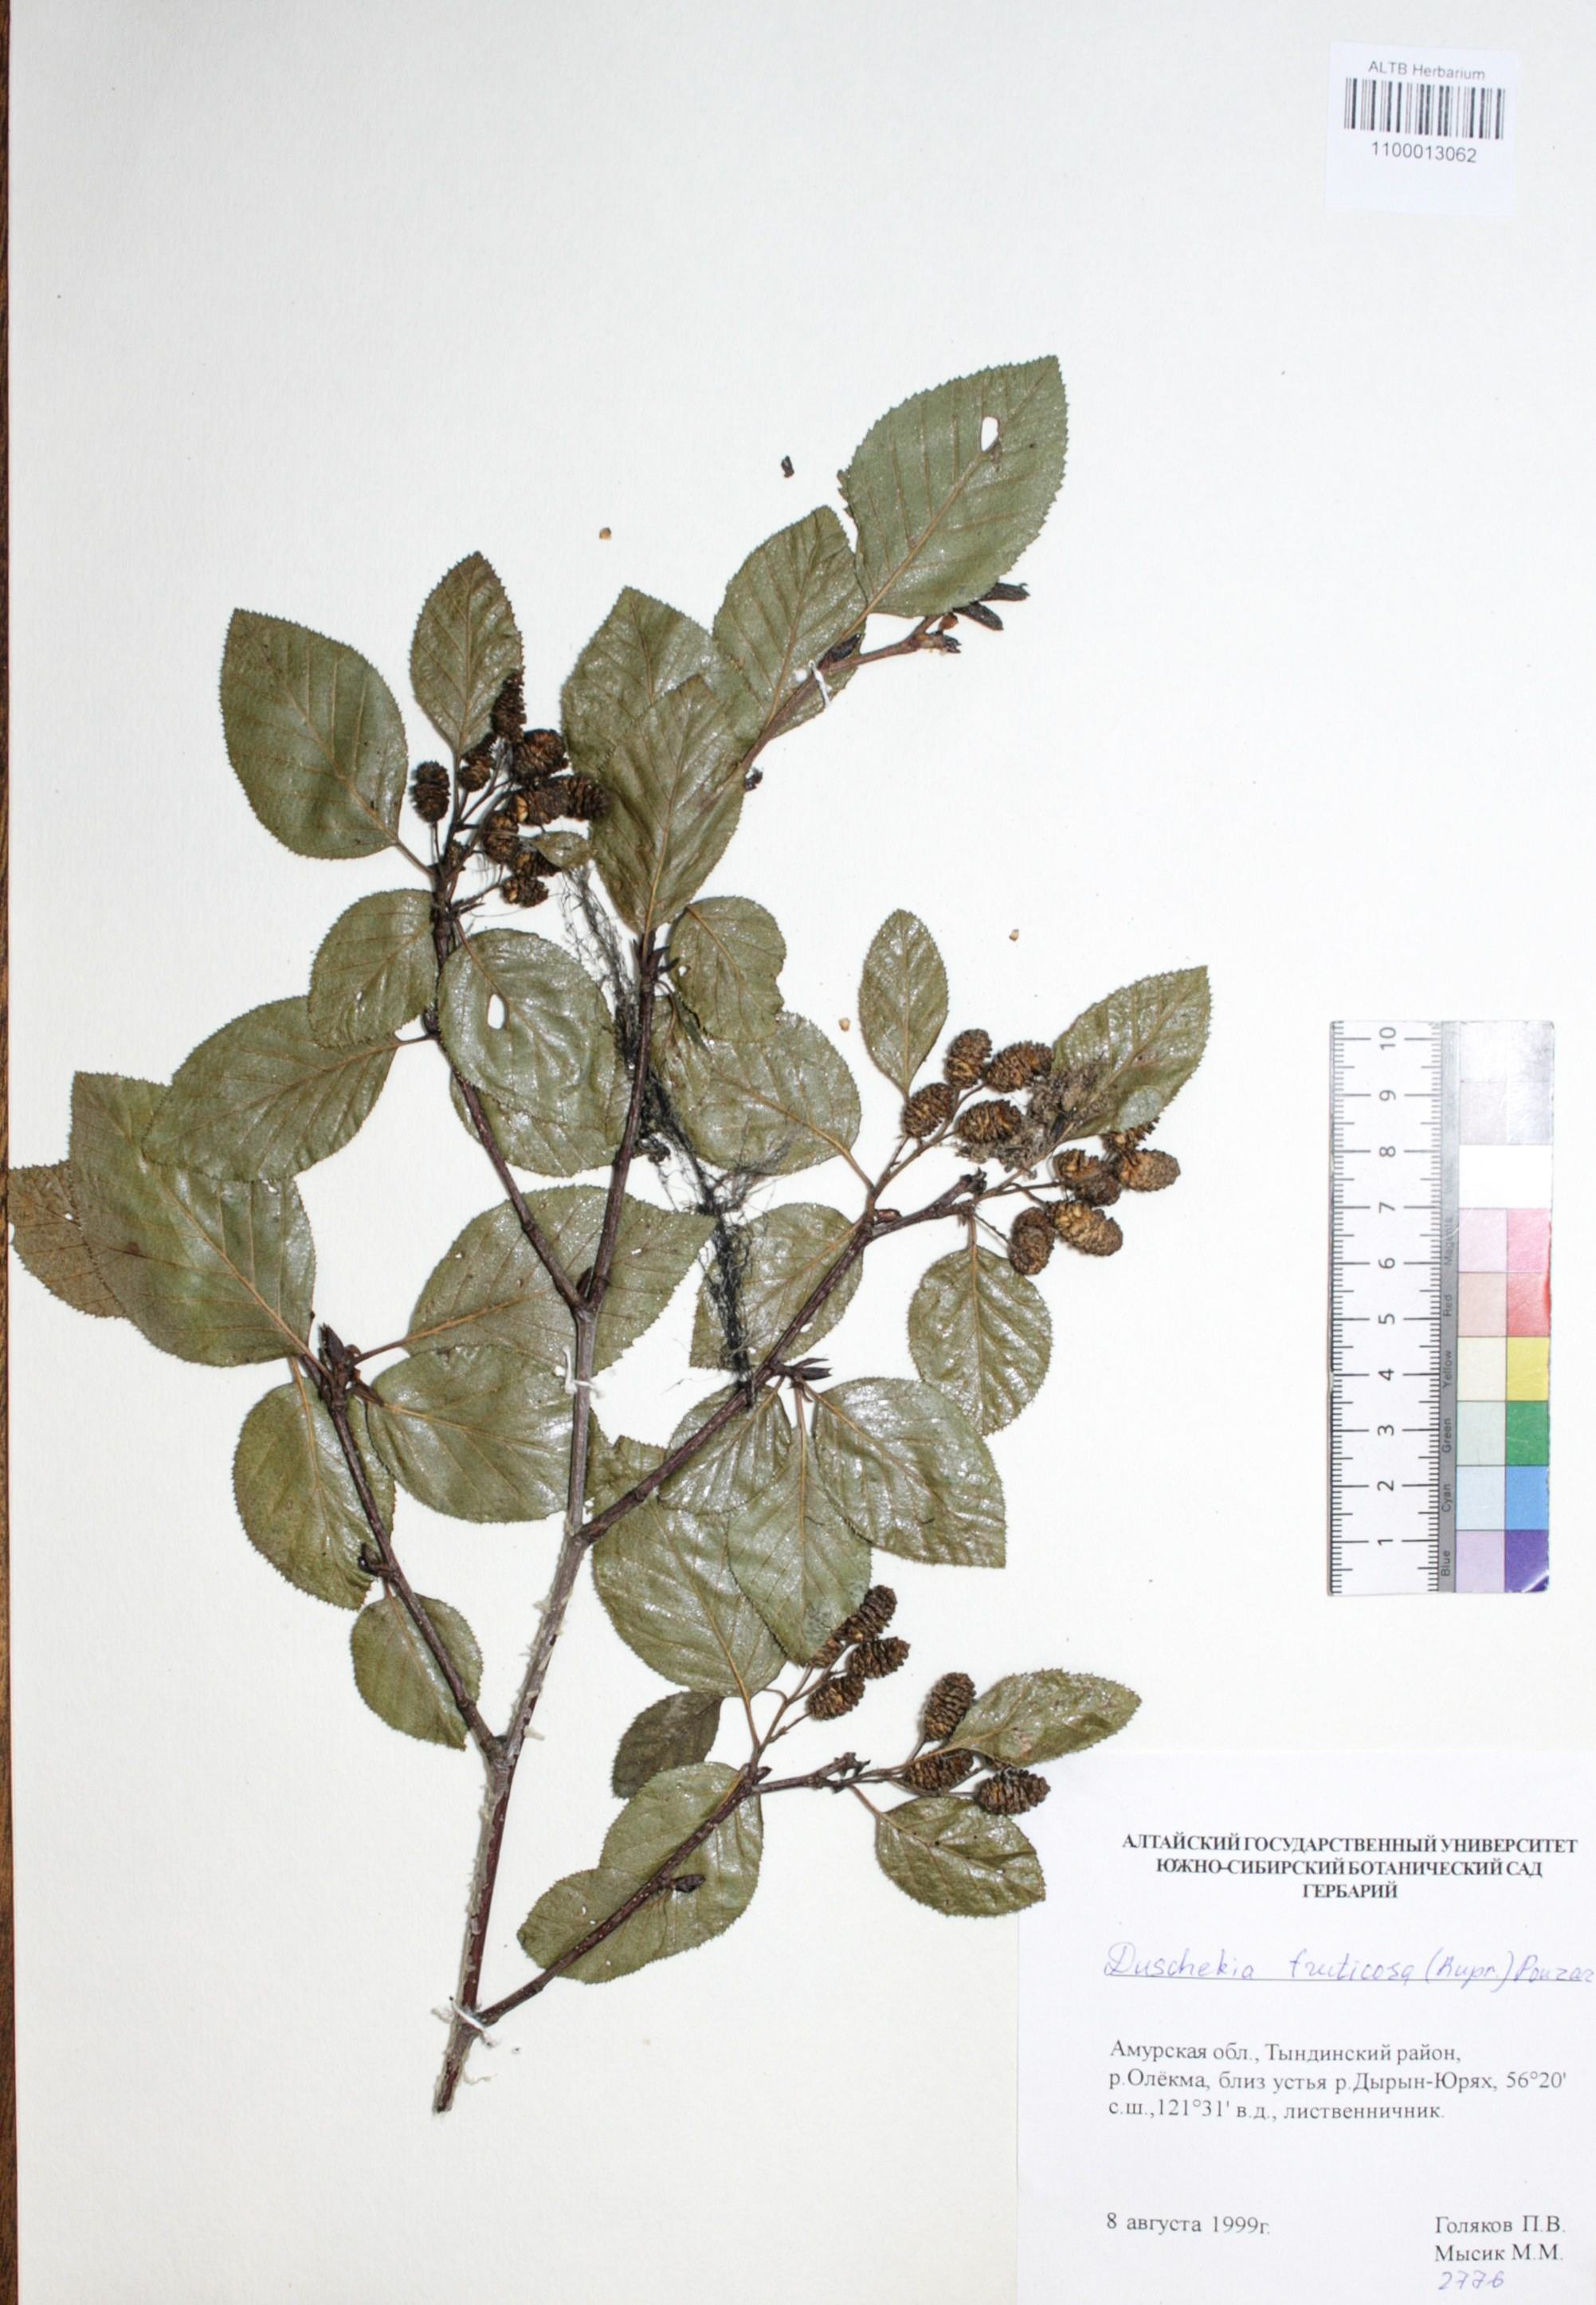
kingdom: Plantae
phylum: Tracheophyta
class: Magnoliopsida
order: Fagales
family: Betulaceae
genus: Alnus
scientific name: Alnus alnobetula
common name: Green alder
